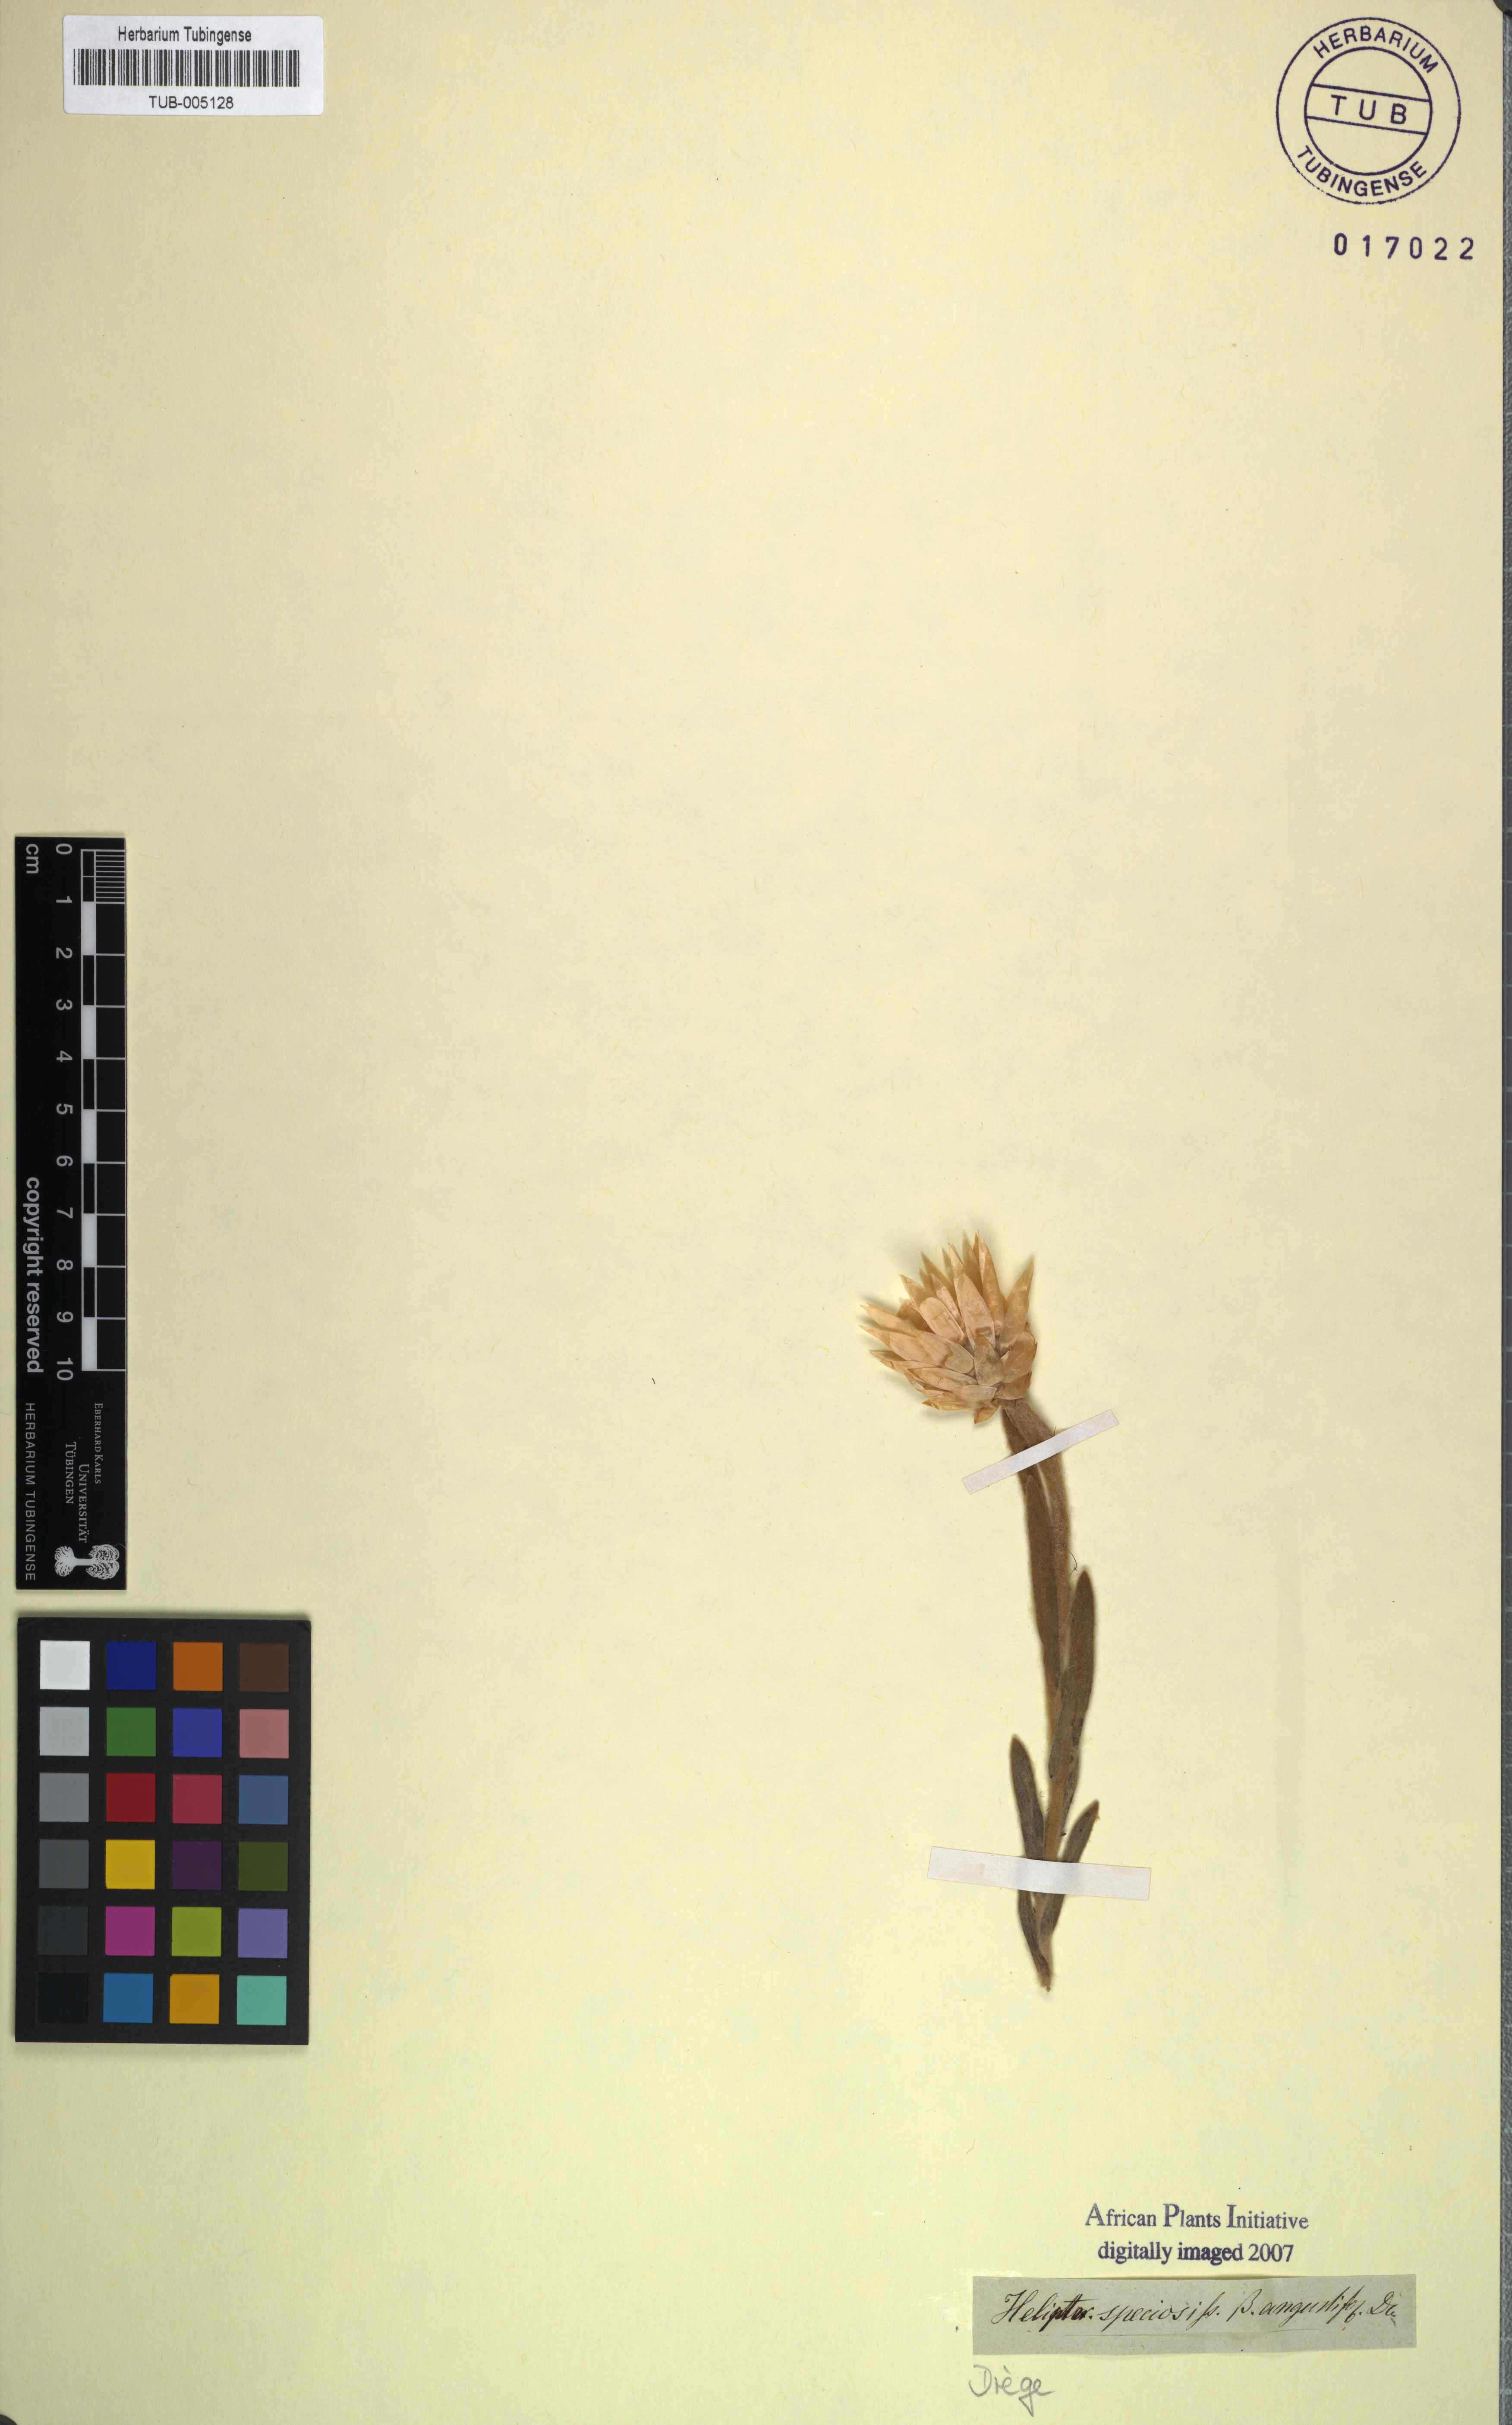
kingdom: Plantae
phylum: Tracheophyta
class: Magnoliopsida
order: Asterales
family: Asteraceae
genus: Syncarpha
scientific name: Syncarpha speciosissima
